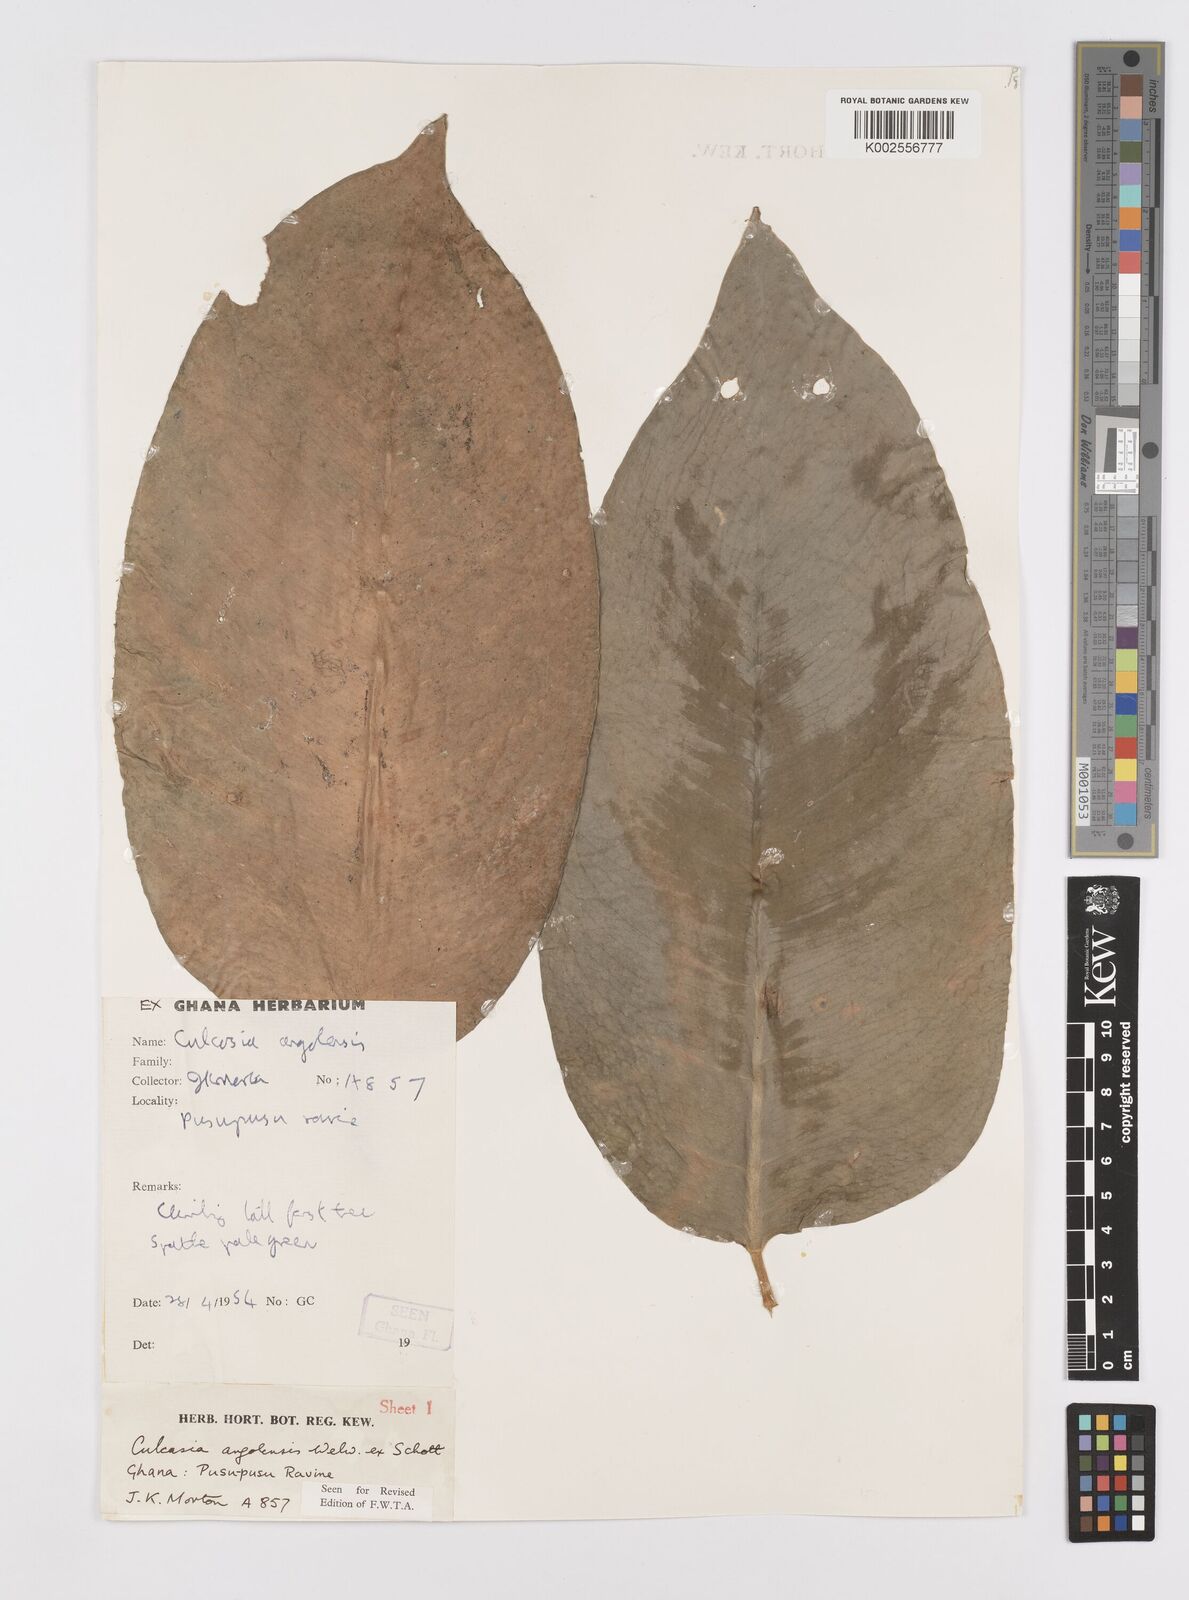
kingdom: Plantae
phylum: Tracheophyta
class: Liliopsida
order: Alismatales
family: Araceae
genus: Culcasia
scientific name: Culcasia angolensis
